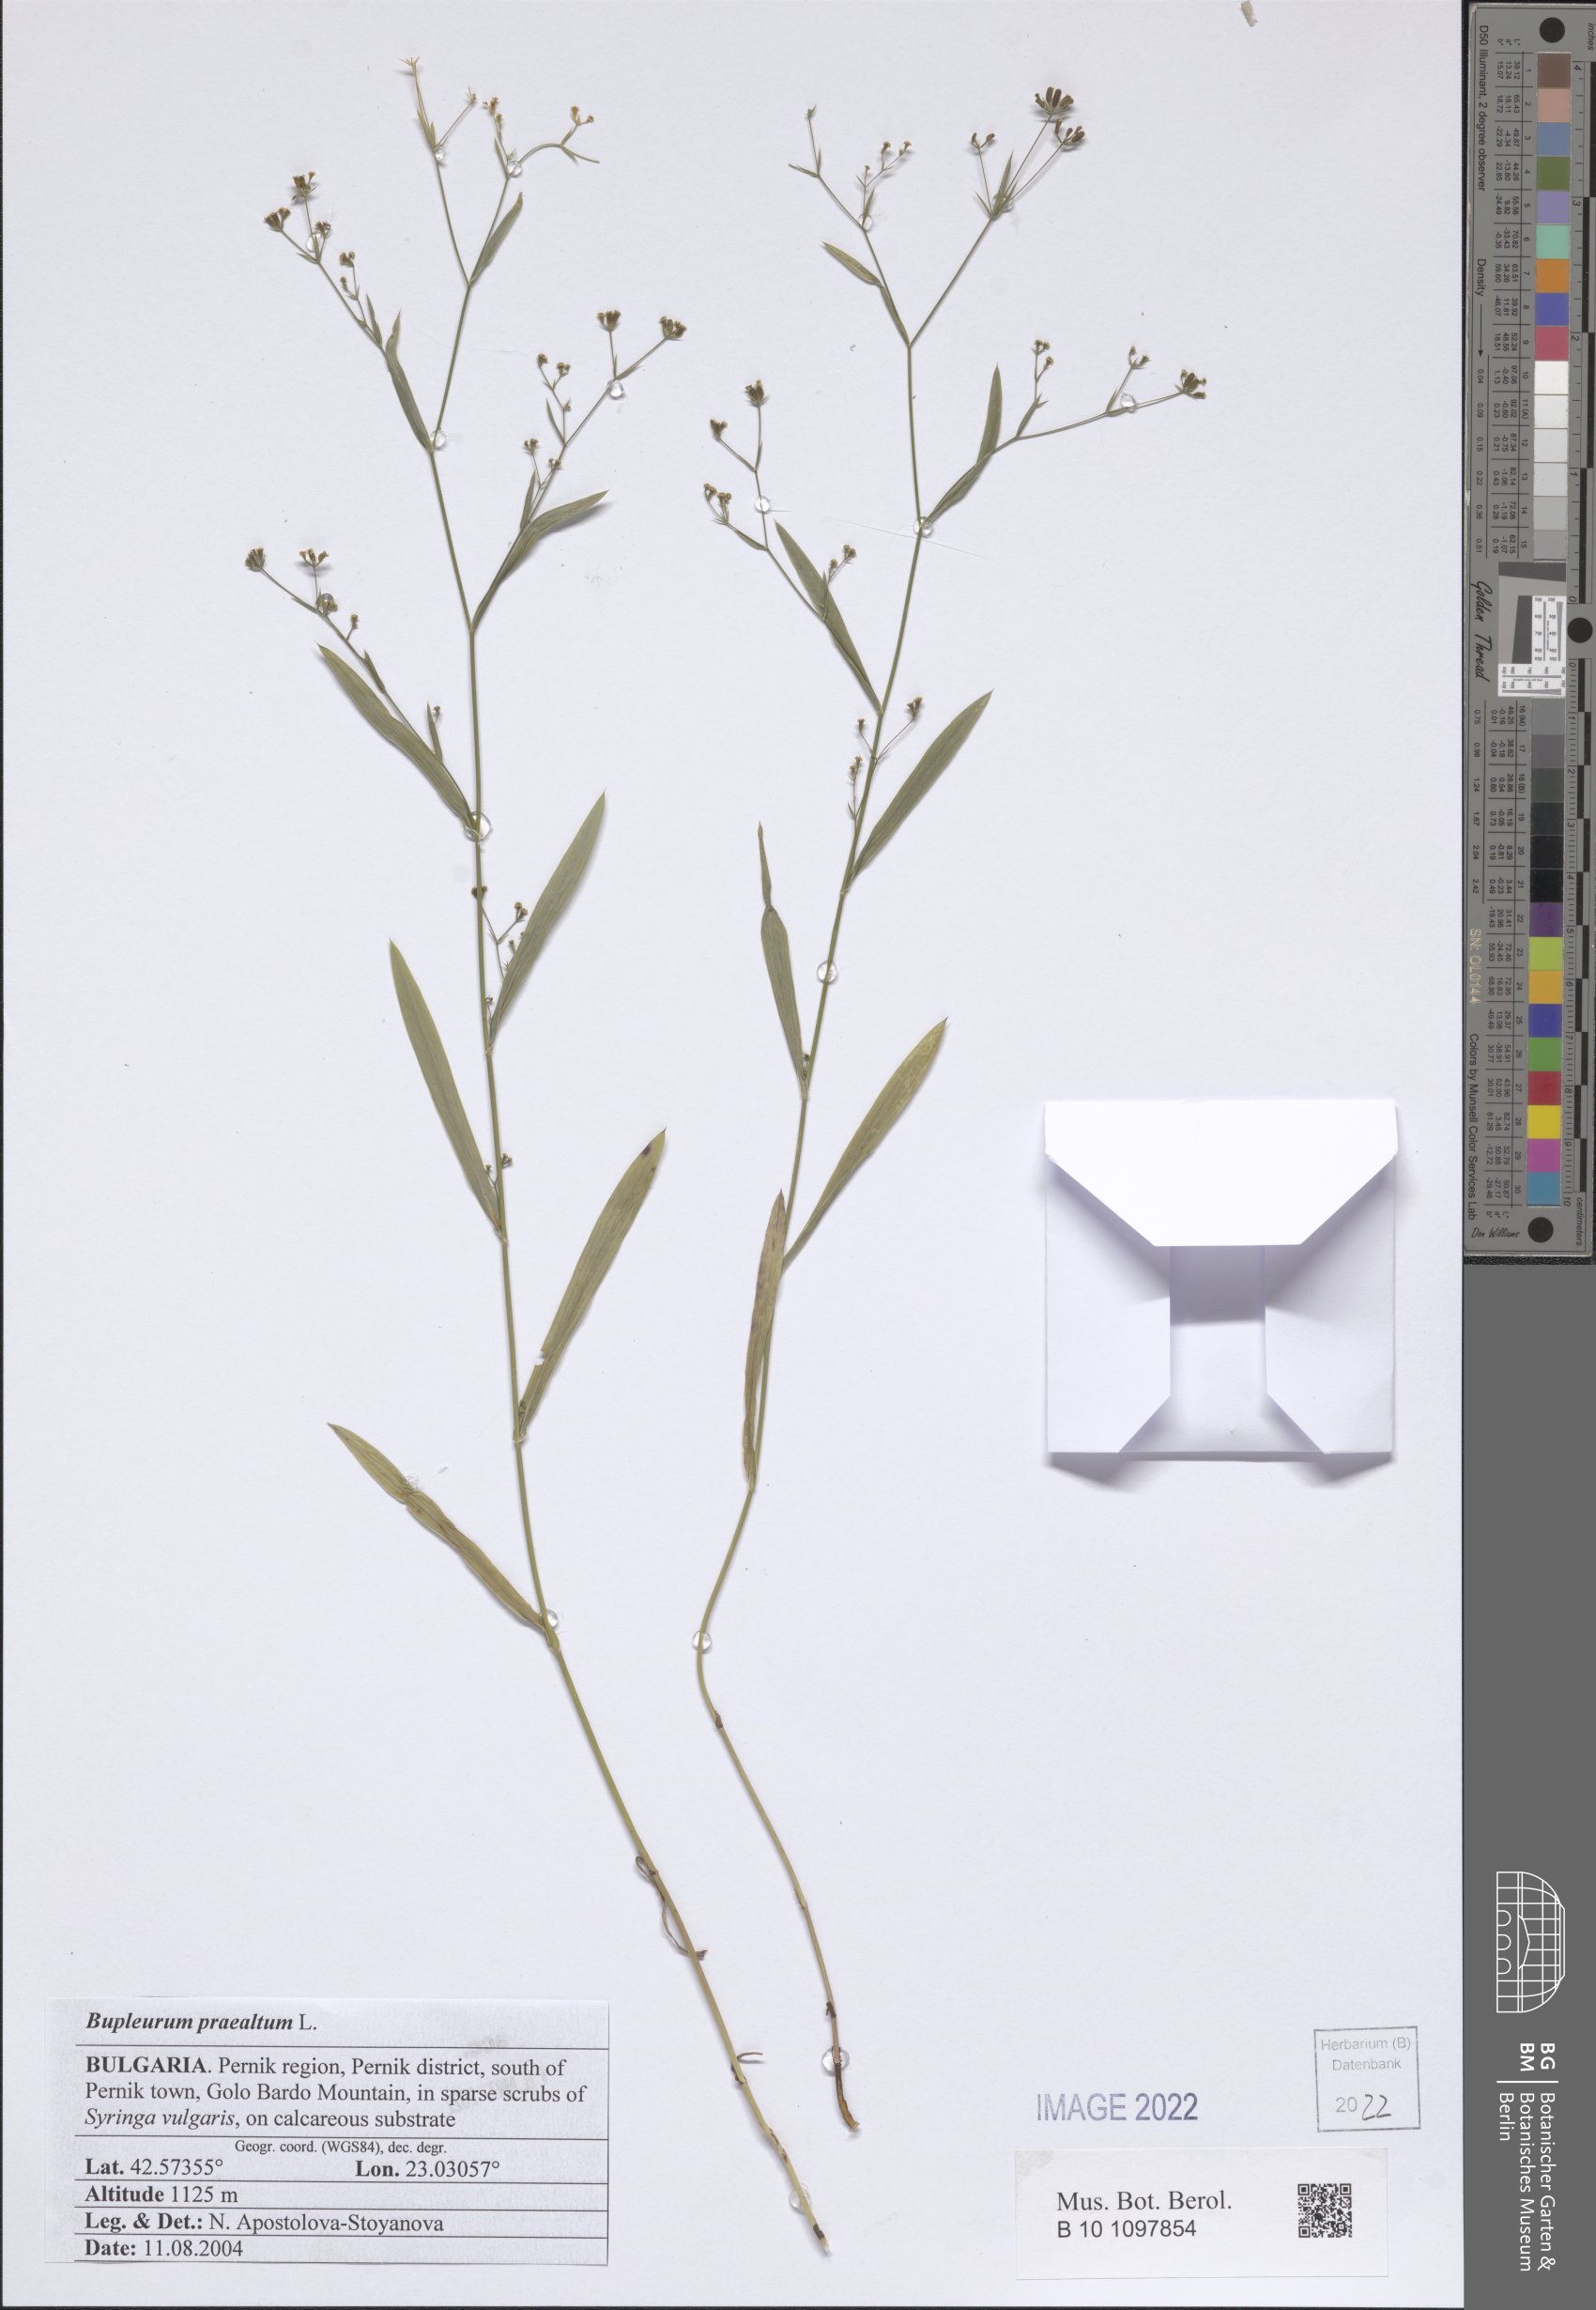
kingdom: Plantae
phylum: Tracheophyta
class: Magnoliopsida
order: Apiales
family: Apiaceae
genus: Bupleurum
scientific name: Bupleurum praealtum
